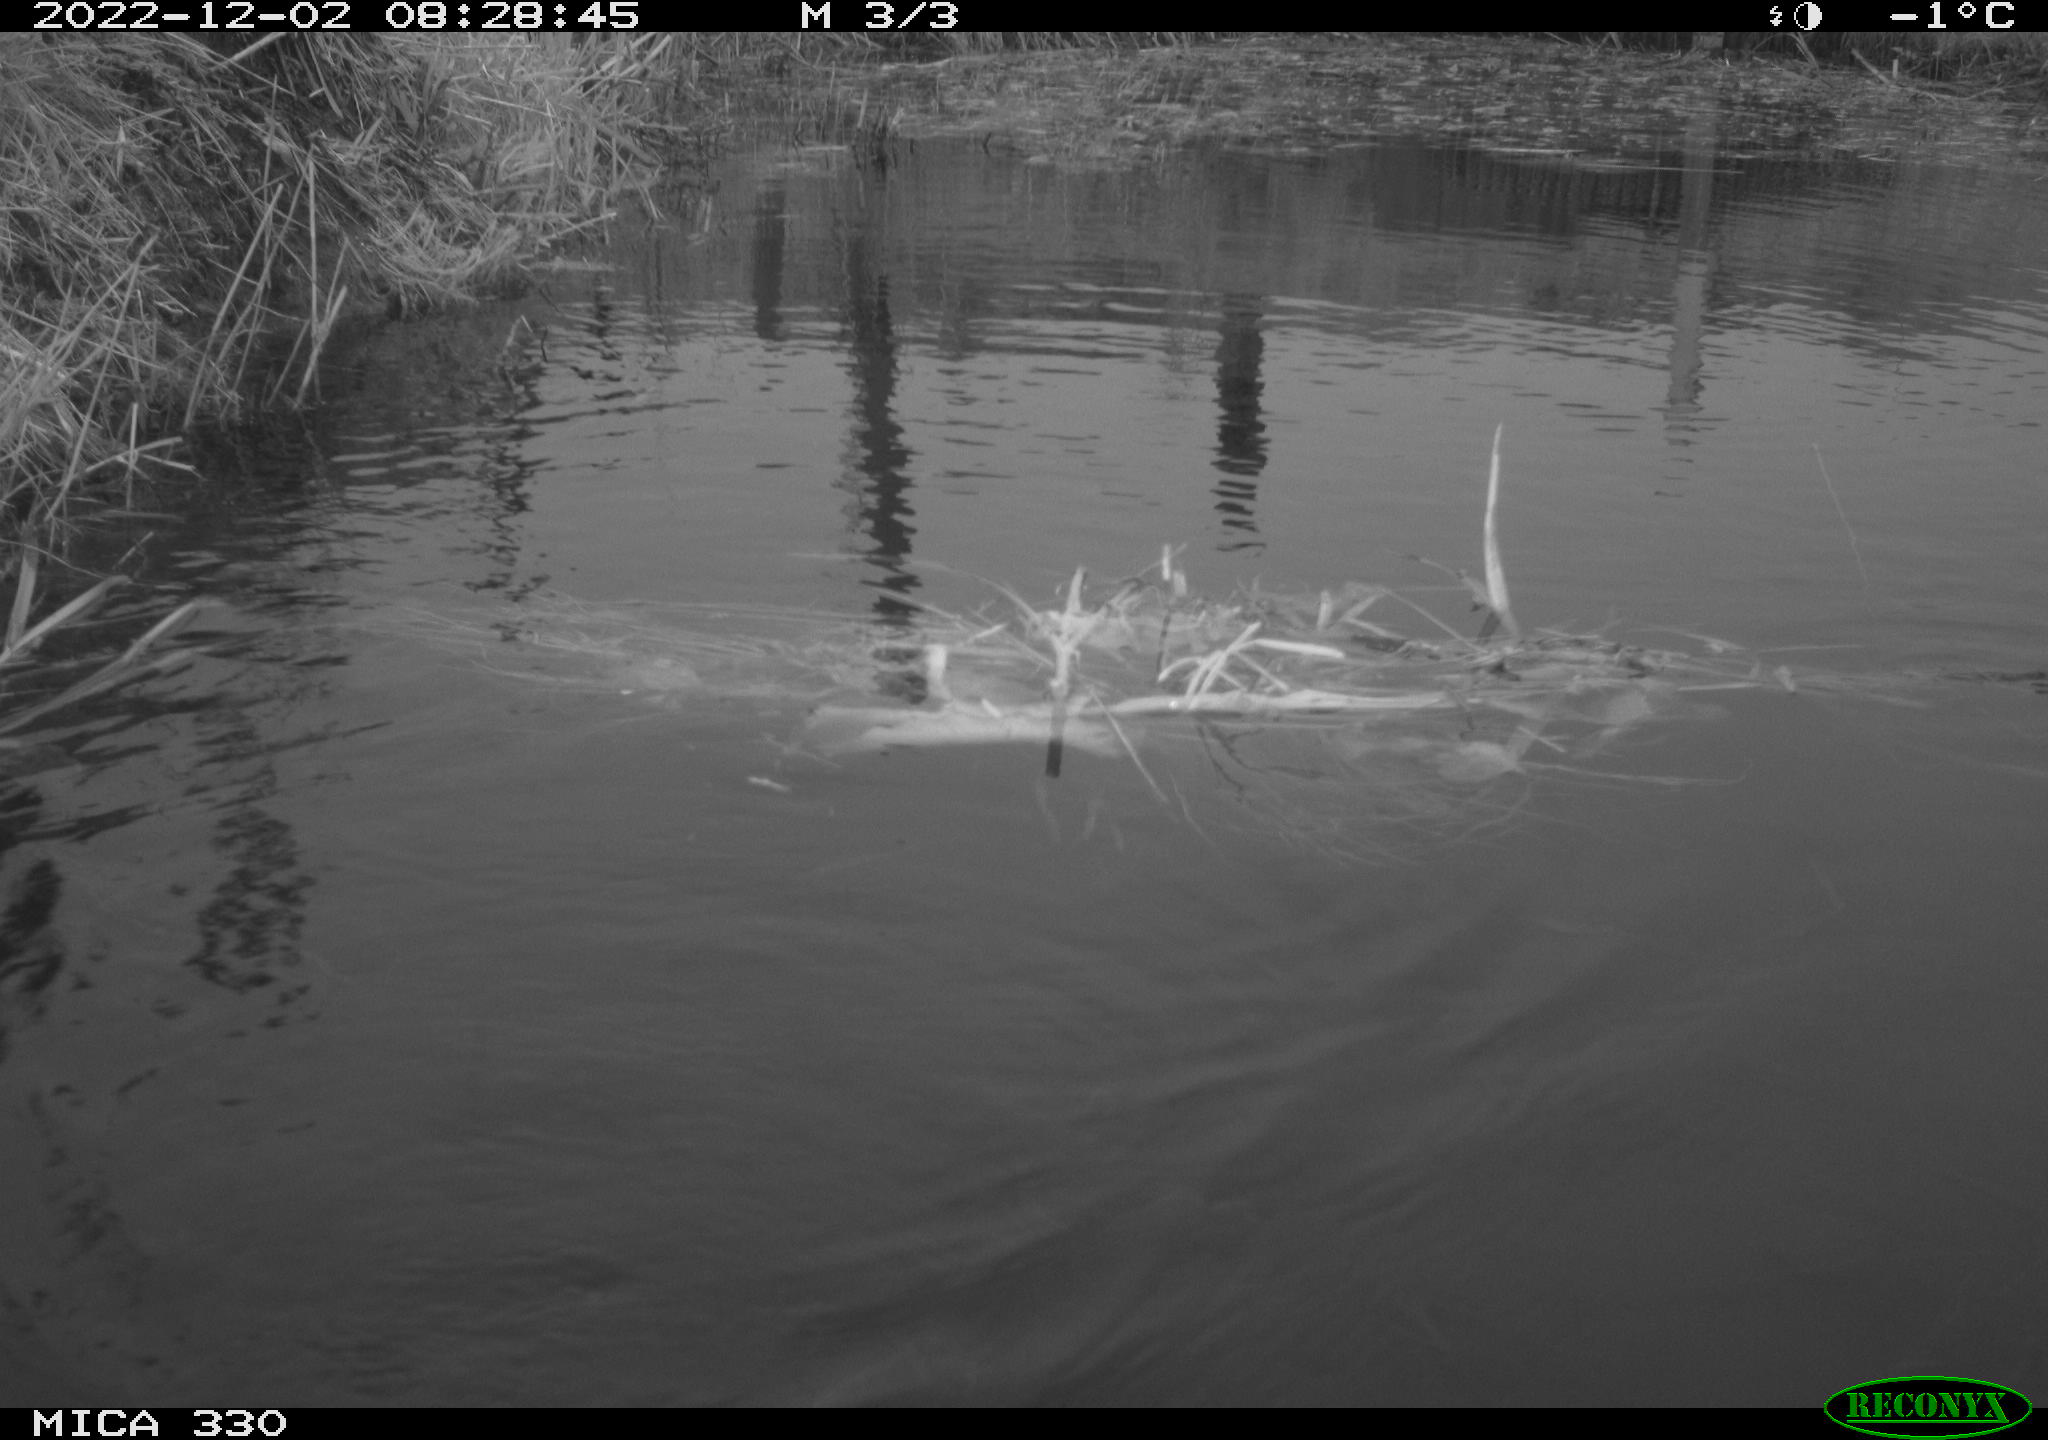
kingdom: Animalia
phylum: Chordata
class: Aves
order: Gruiformes
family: Rallidae
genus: Gallinula
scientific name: Gallinula chloropus
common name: Common moorhen
